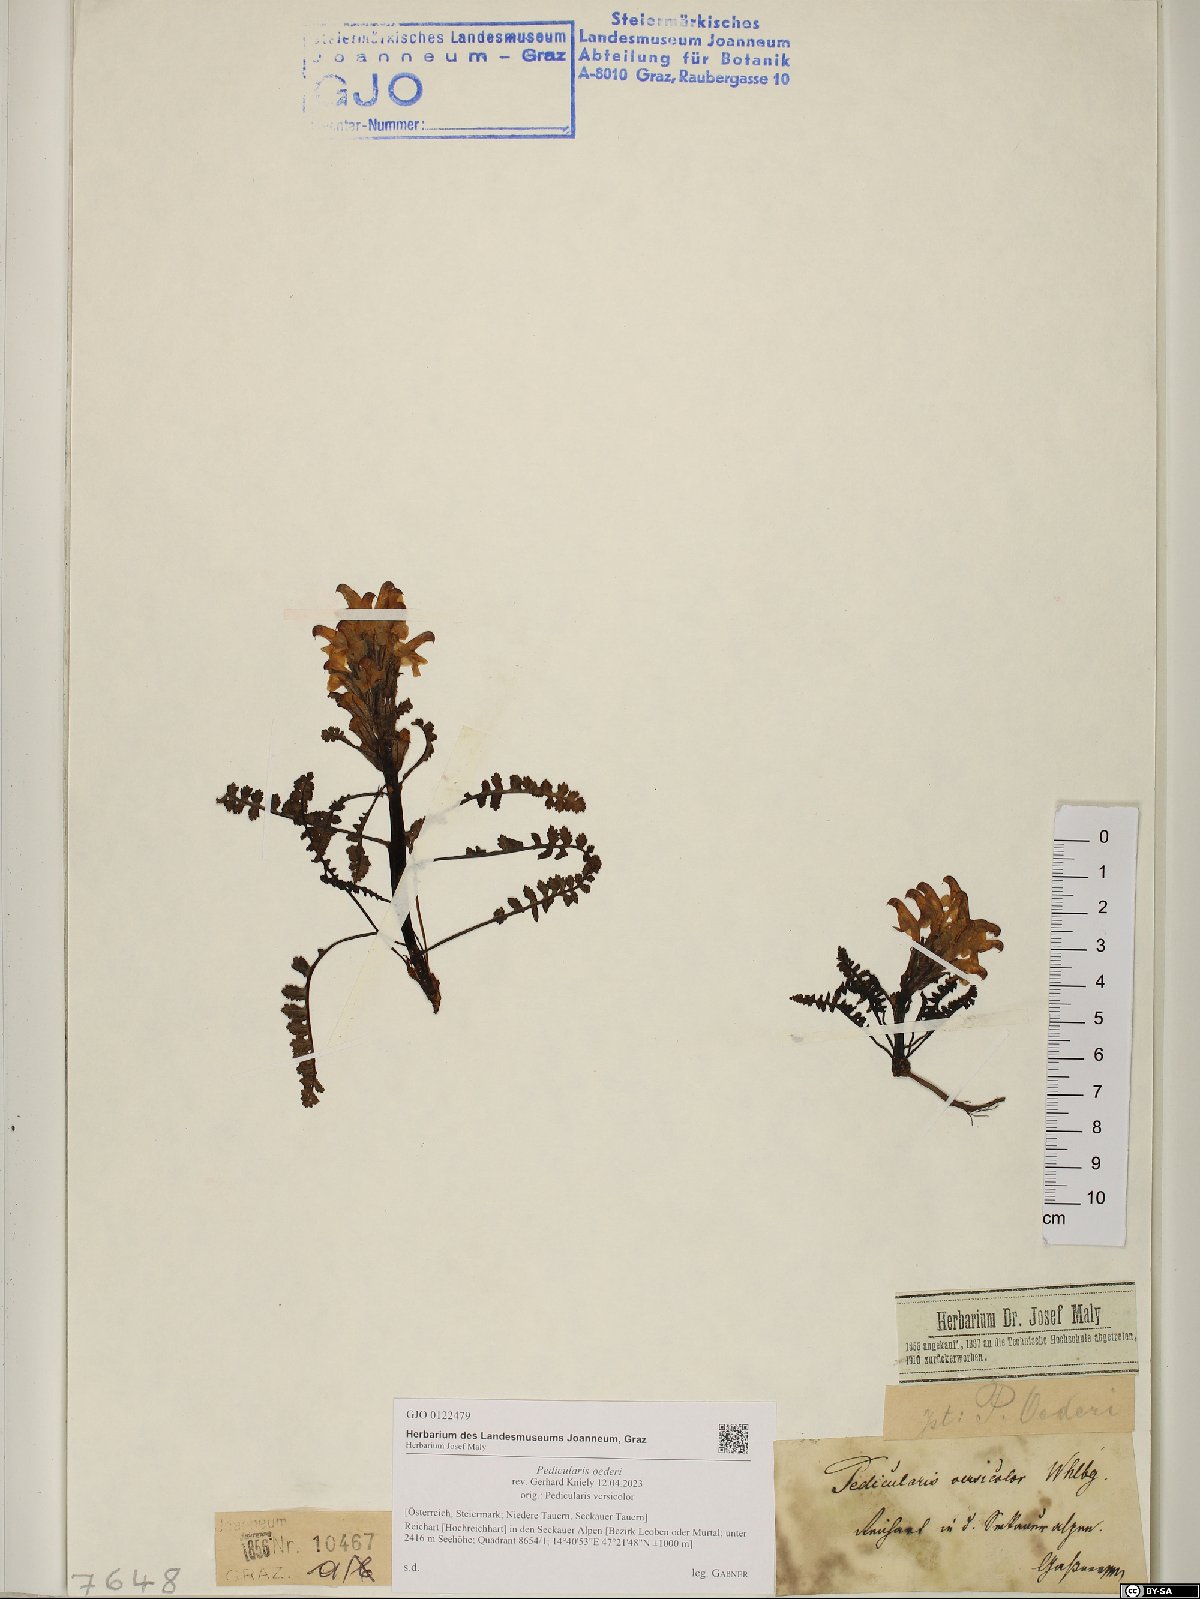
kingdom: Plantae
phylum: Tracheophyta
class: Magnoliopsida
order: Lamiales
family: Orobanchaceae
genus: Pedicularis
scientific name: Pedicularis oederi
